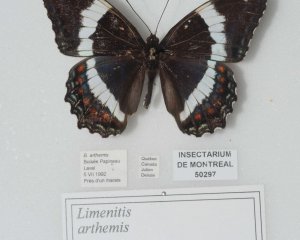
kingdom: Animalia
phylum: Arthropoda
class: Insecta
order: Lepidoptera
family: Nymphalidae
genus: Limenitis
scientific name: Limenitis arthemis
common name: Red-spotted Admiral
